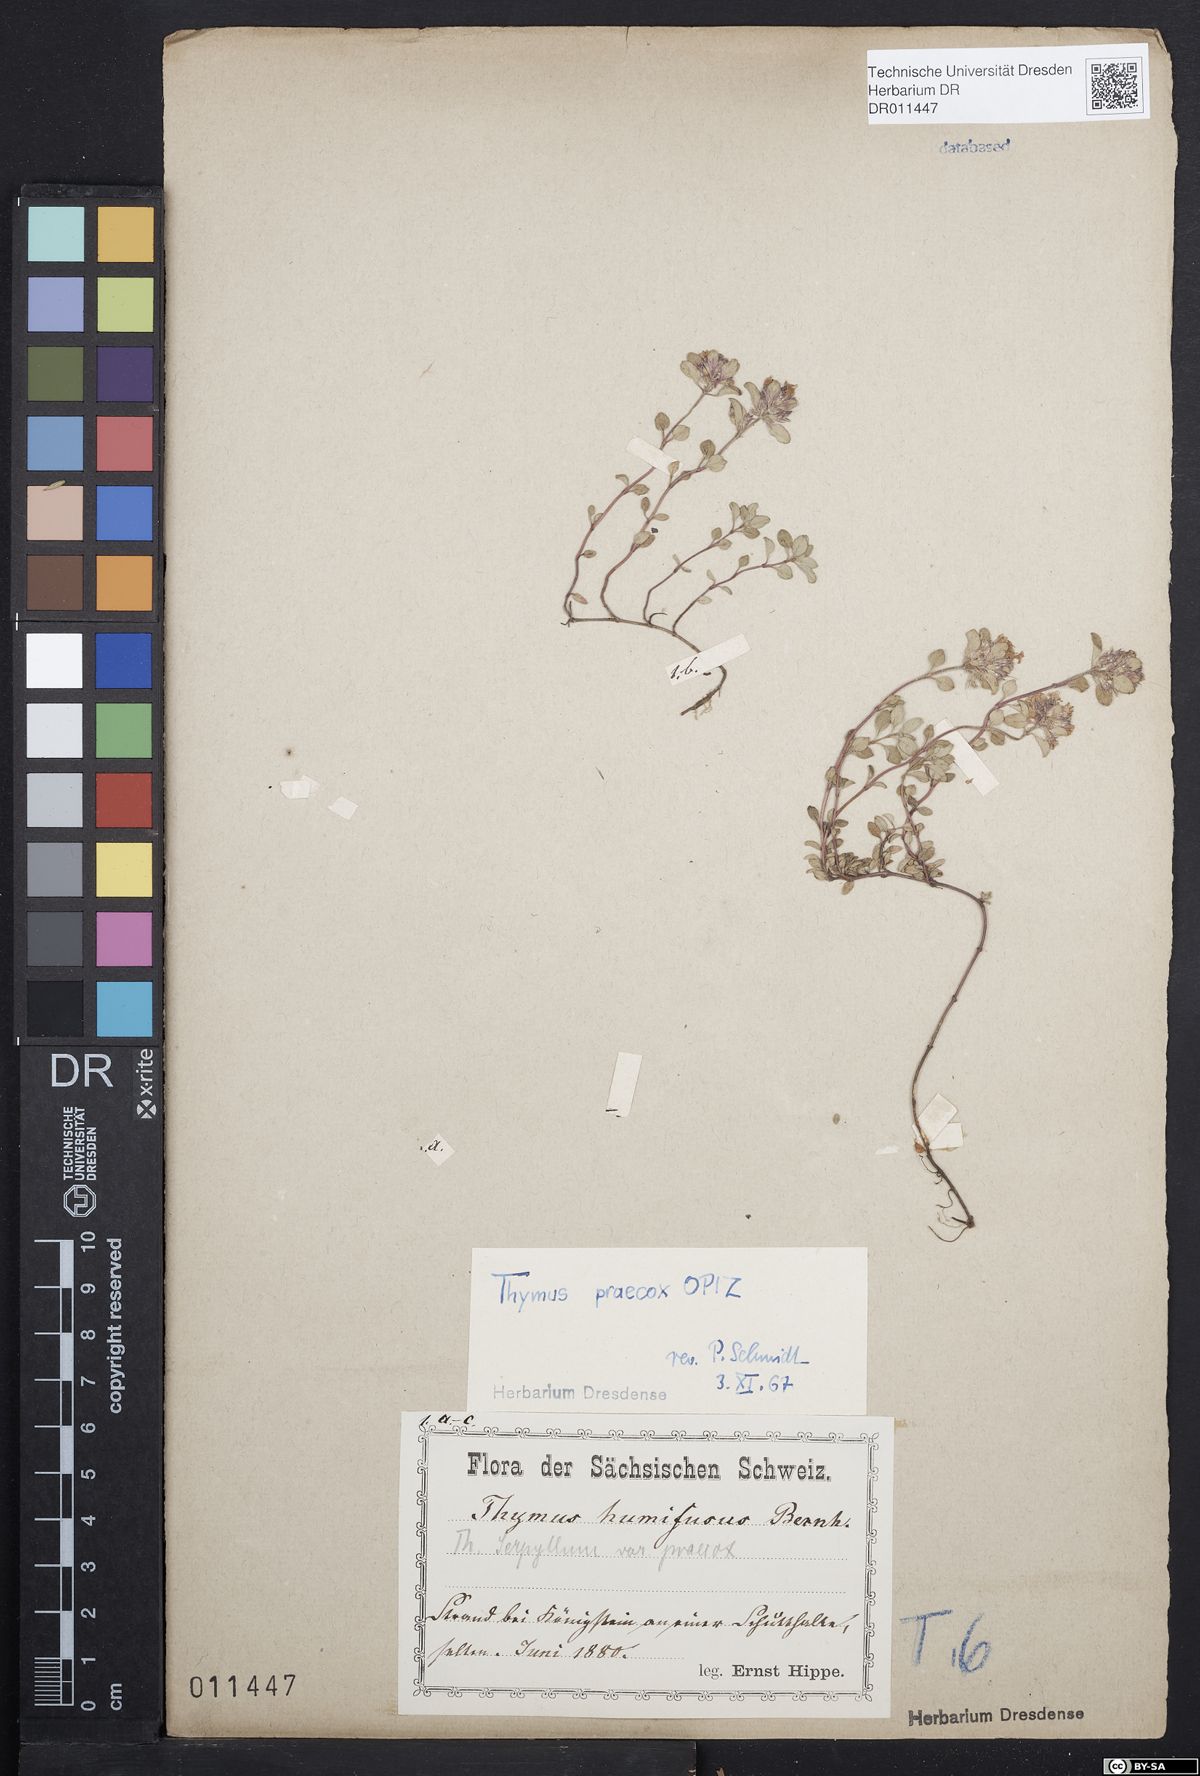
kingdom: Plantae
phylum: Tracheophyta
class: Magnoliopsida
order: Lamiales
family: Lamiaceae
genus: Thymus
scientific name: Thymus praecox
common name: Wild thyme
